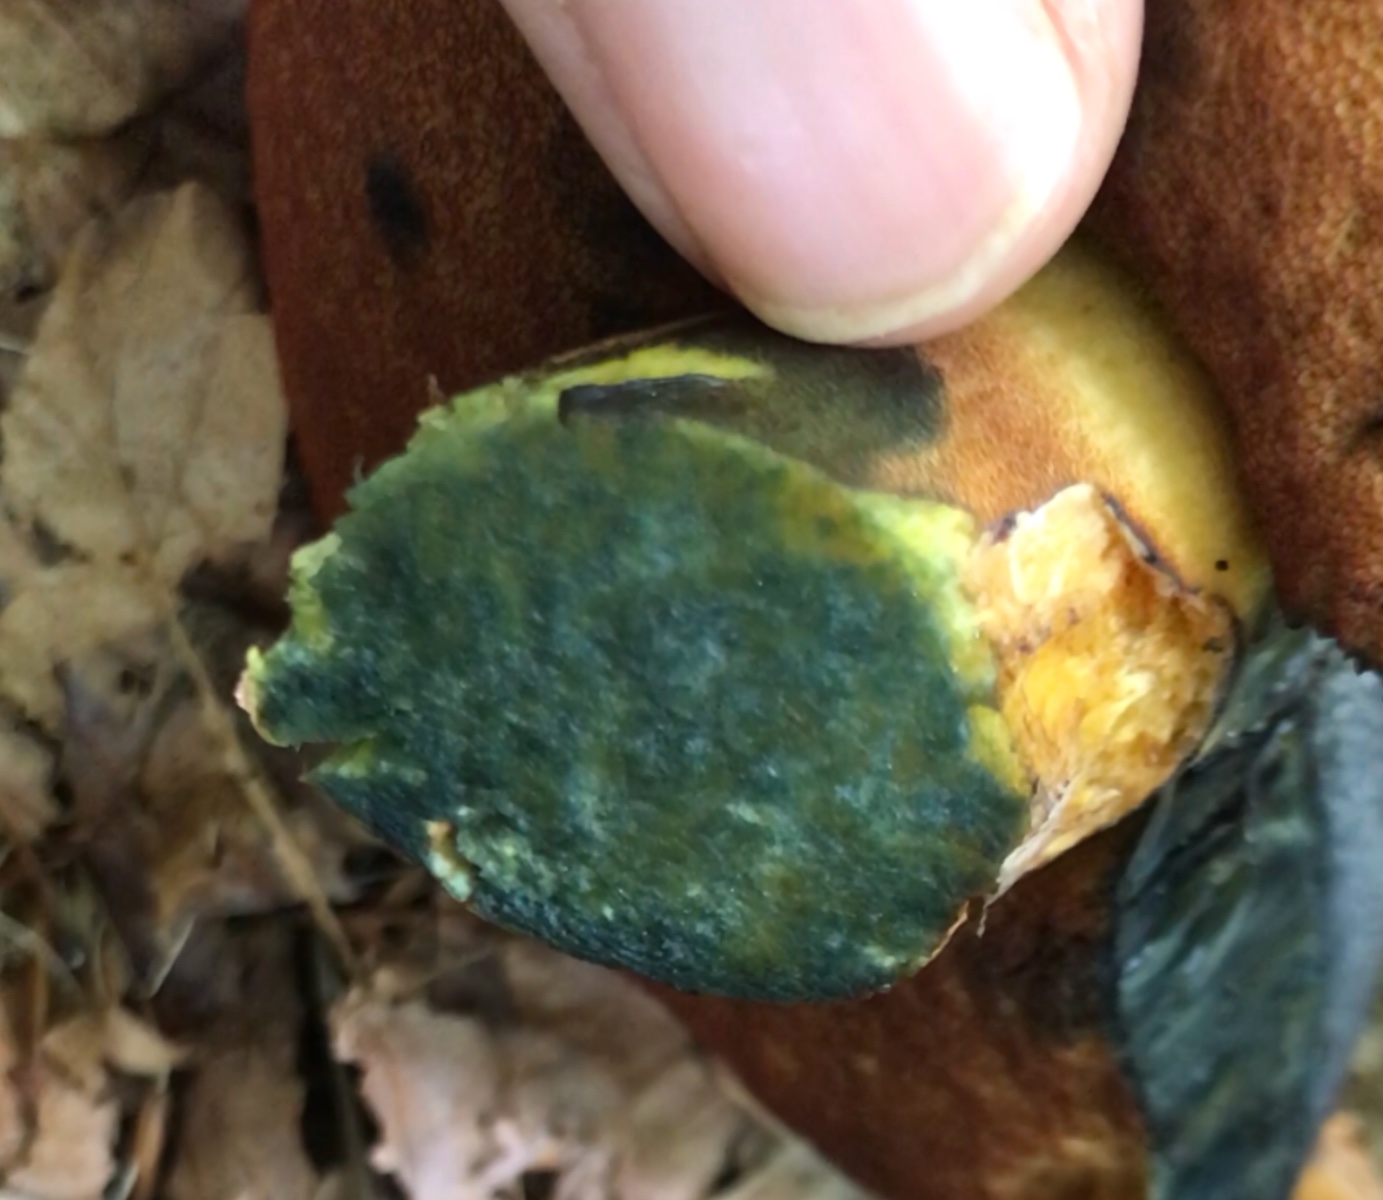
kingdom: Fungi
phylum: Basidiomycota
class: Agaricomycetes
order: Boletales
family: Boletaceae
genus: Neoboletus
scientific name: Neoboletus erythropus
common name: punktstokket indigorørhat
